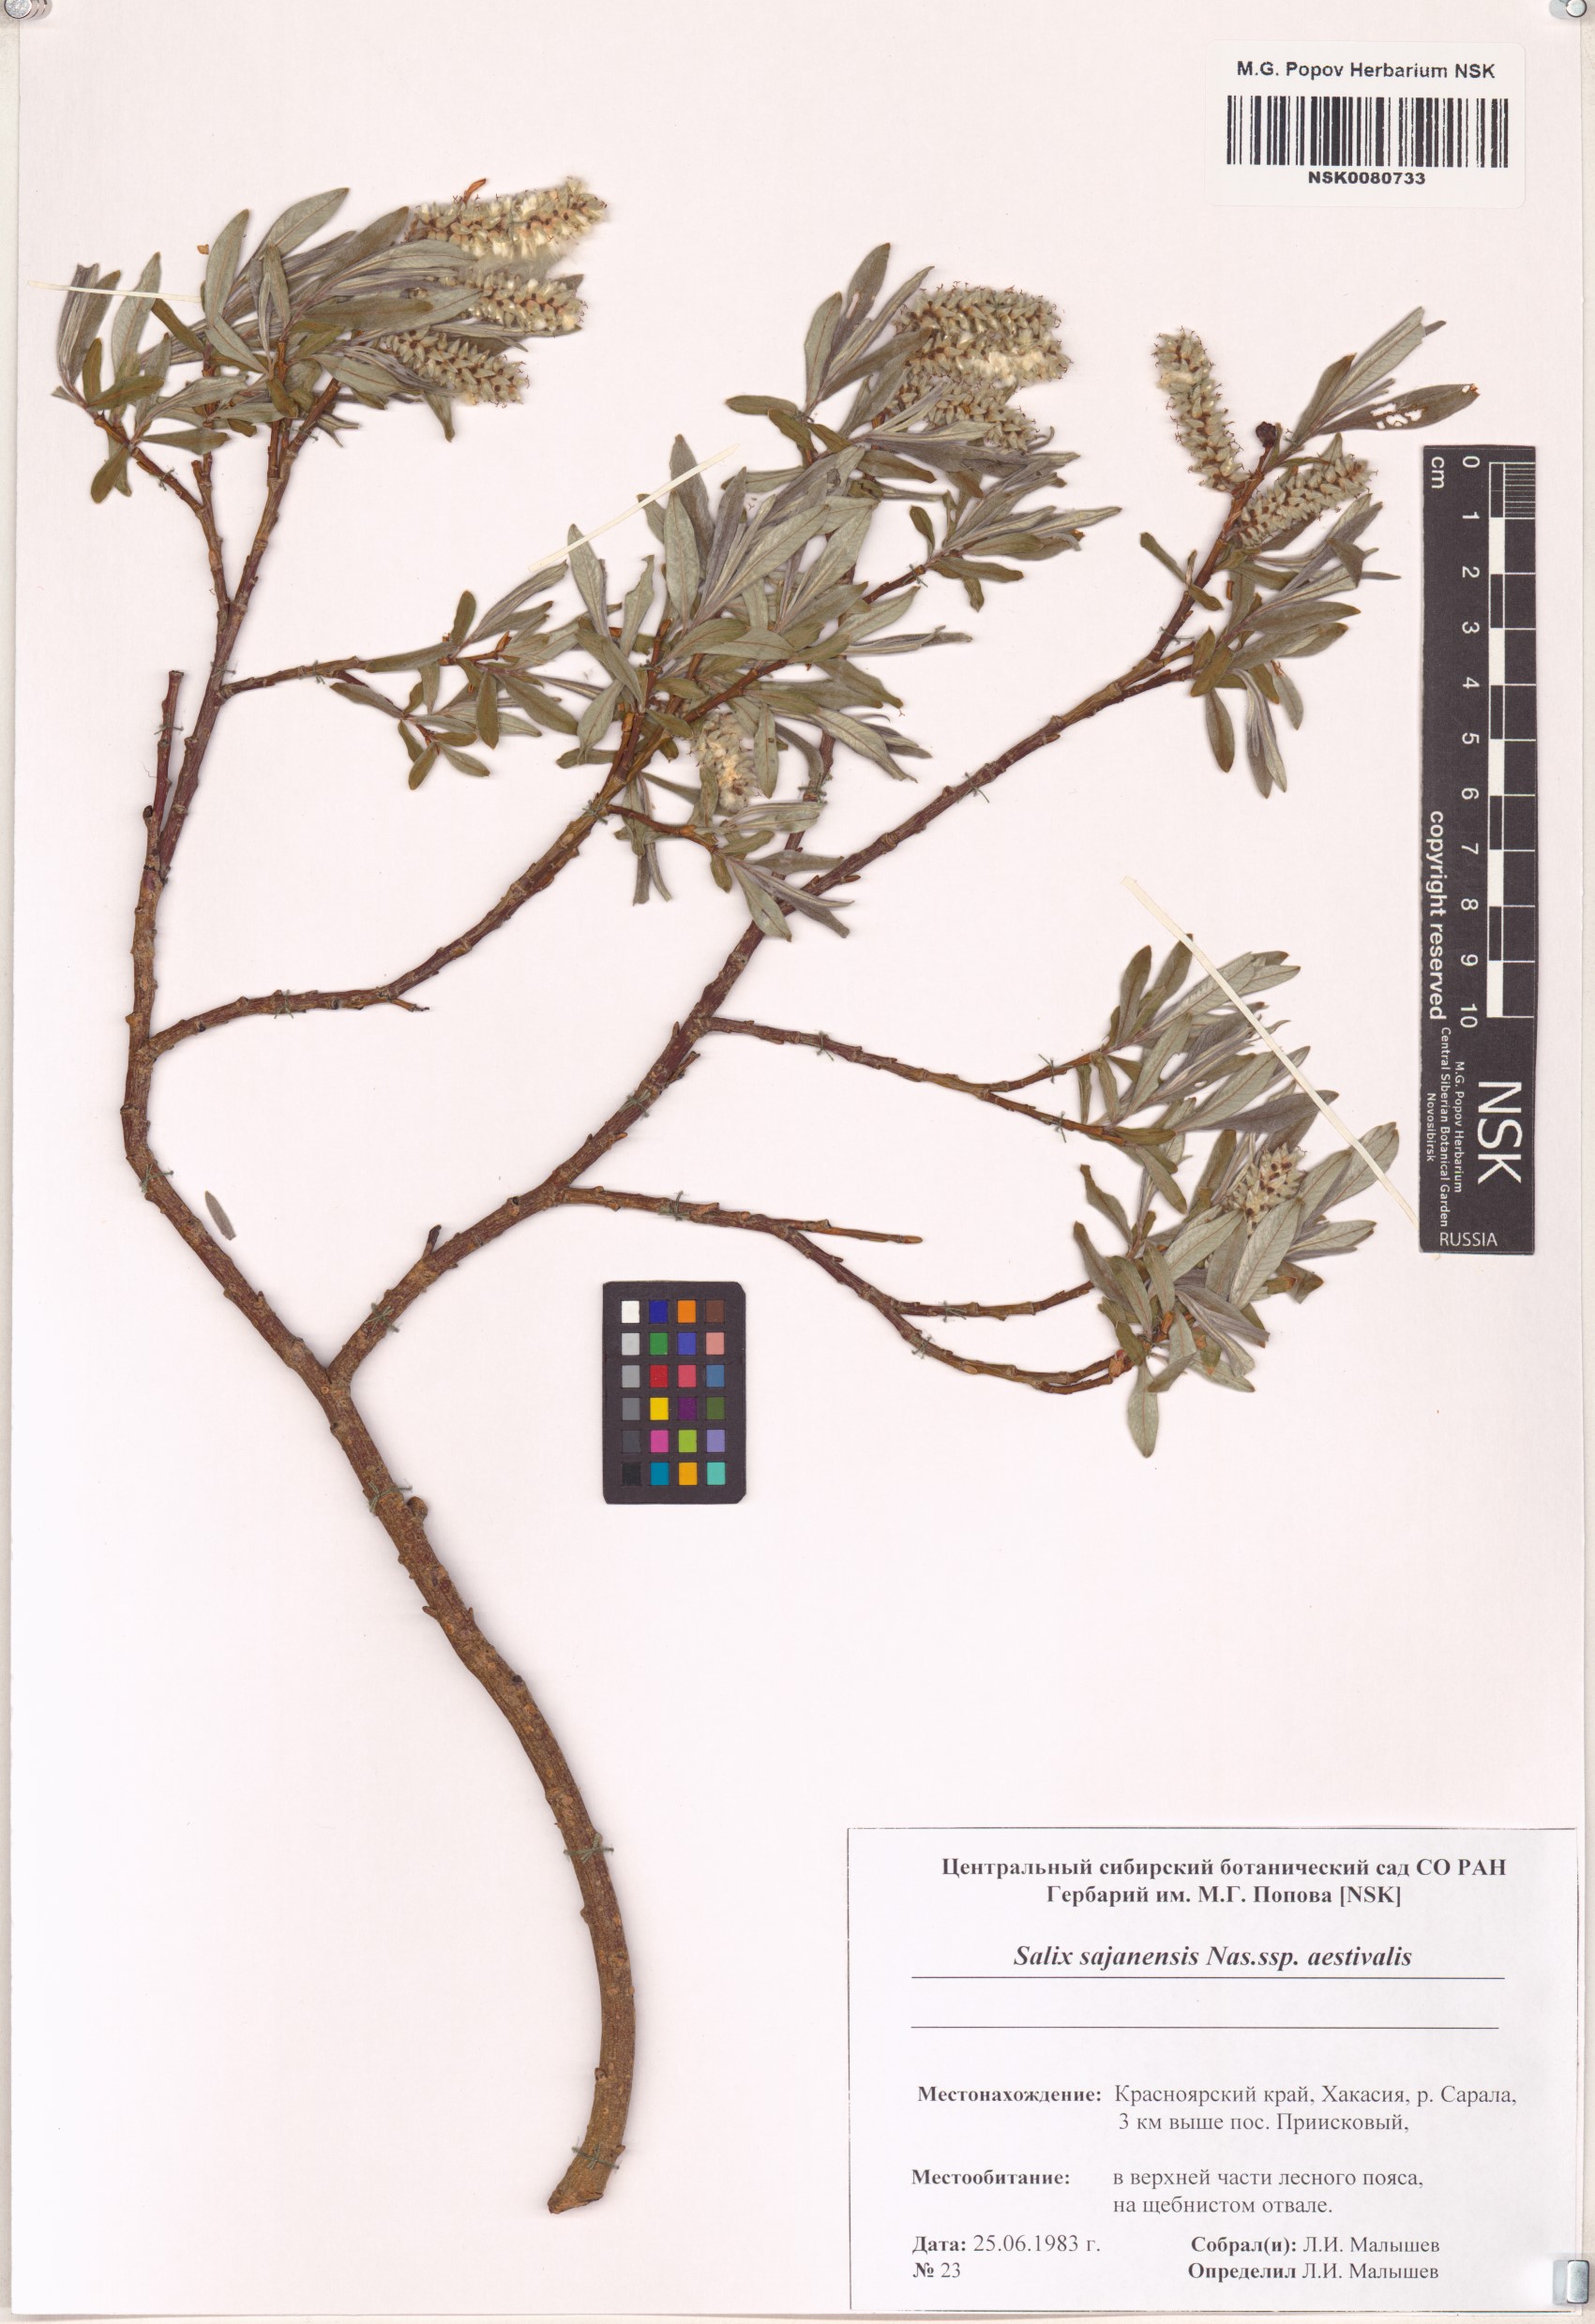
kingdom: Plantae
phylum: Tracheophyta
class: Magnoliopsida
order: Malpighiales
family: Salicaceae
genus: Salix
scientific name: Salix sajanensis
